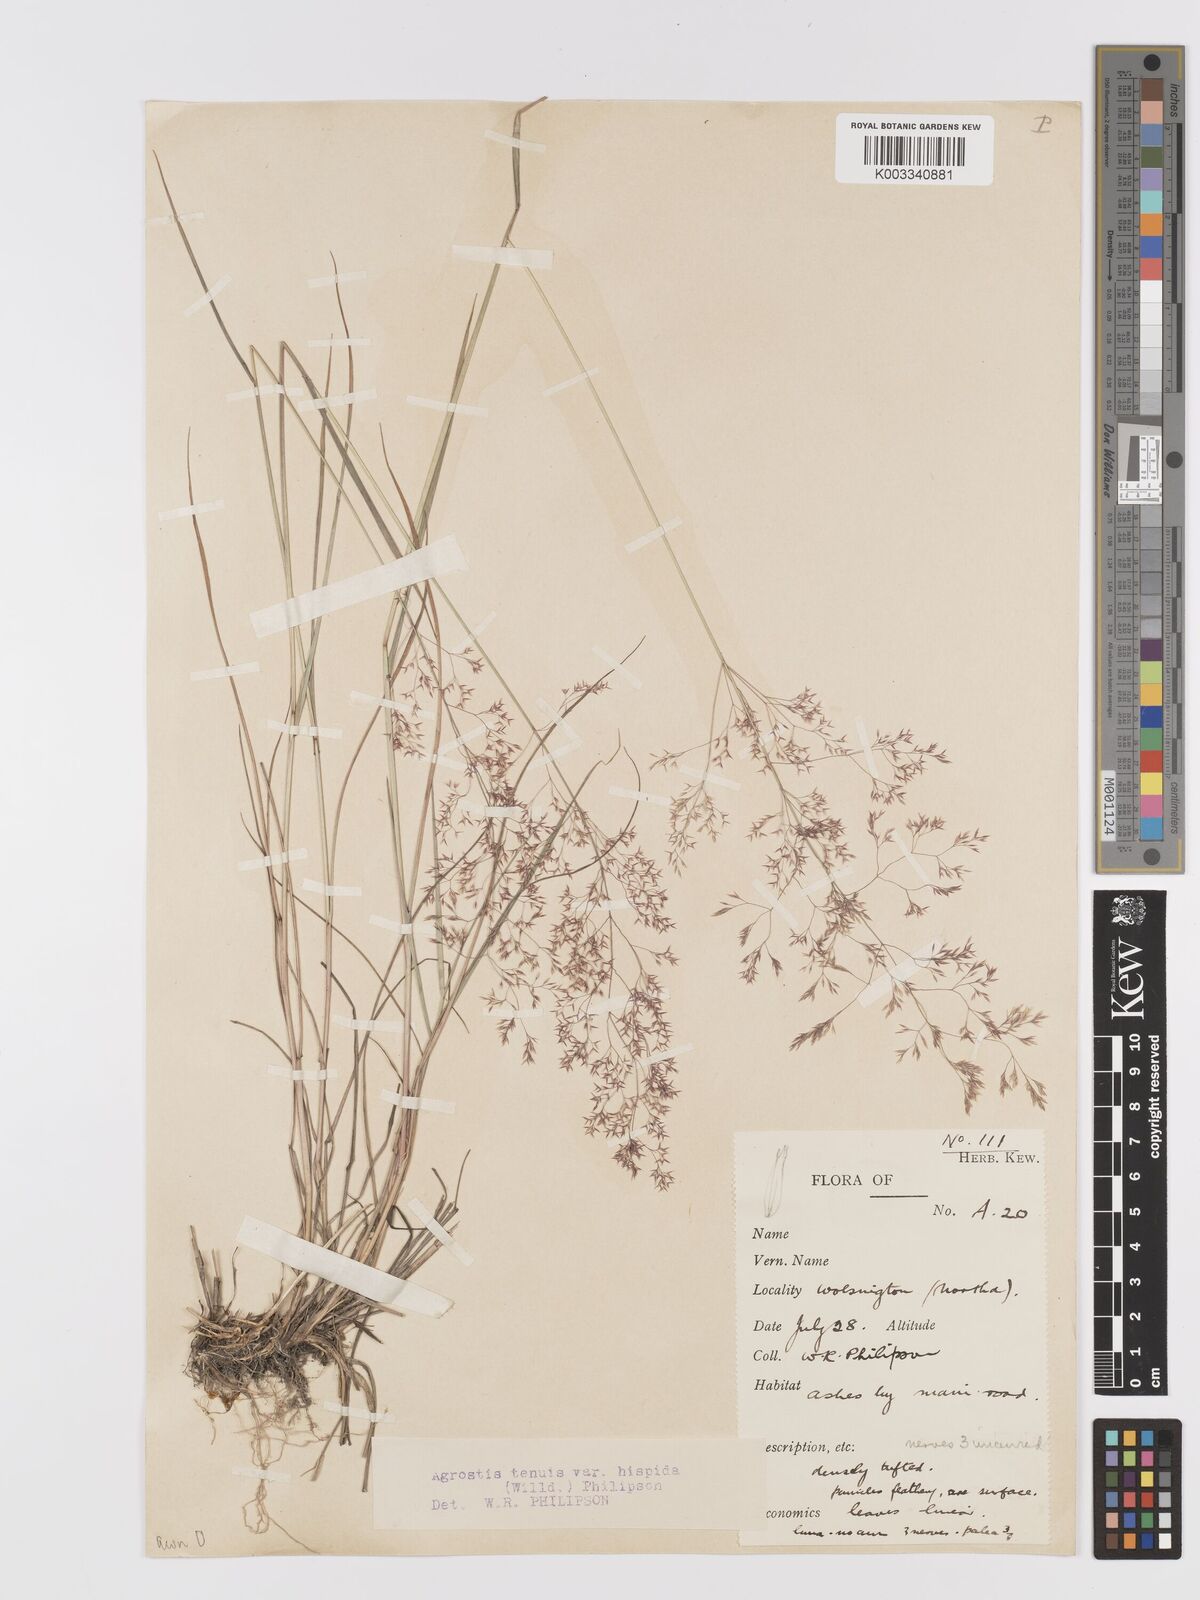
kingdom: Plantae
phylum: Tracheophyta
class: Liliopsida
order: Poales
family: Poaceae
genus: Agrostis
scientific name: Agrostis capillaris
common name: Colonial bentgrass
